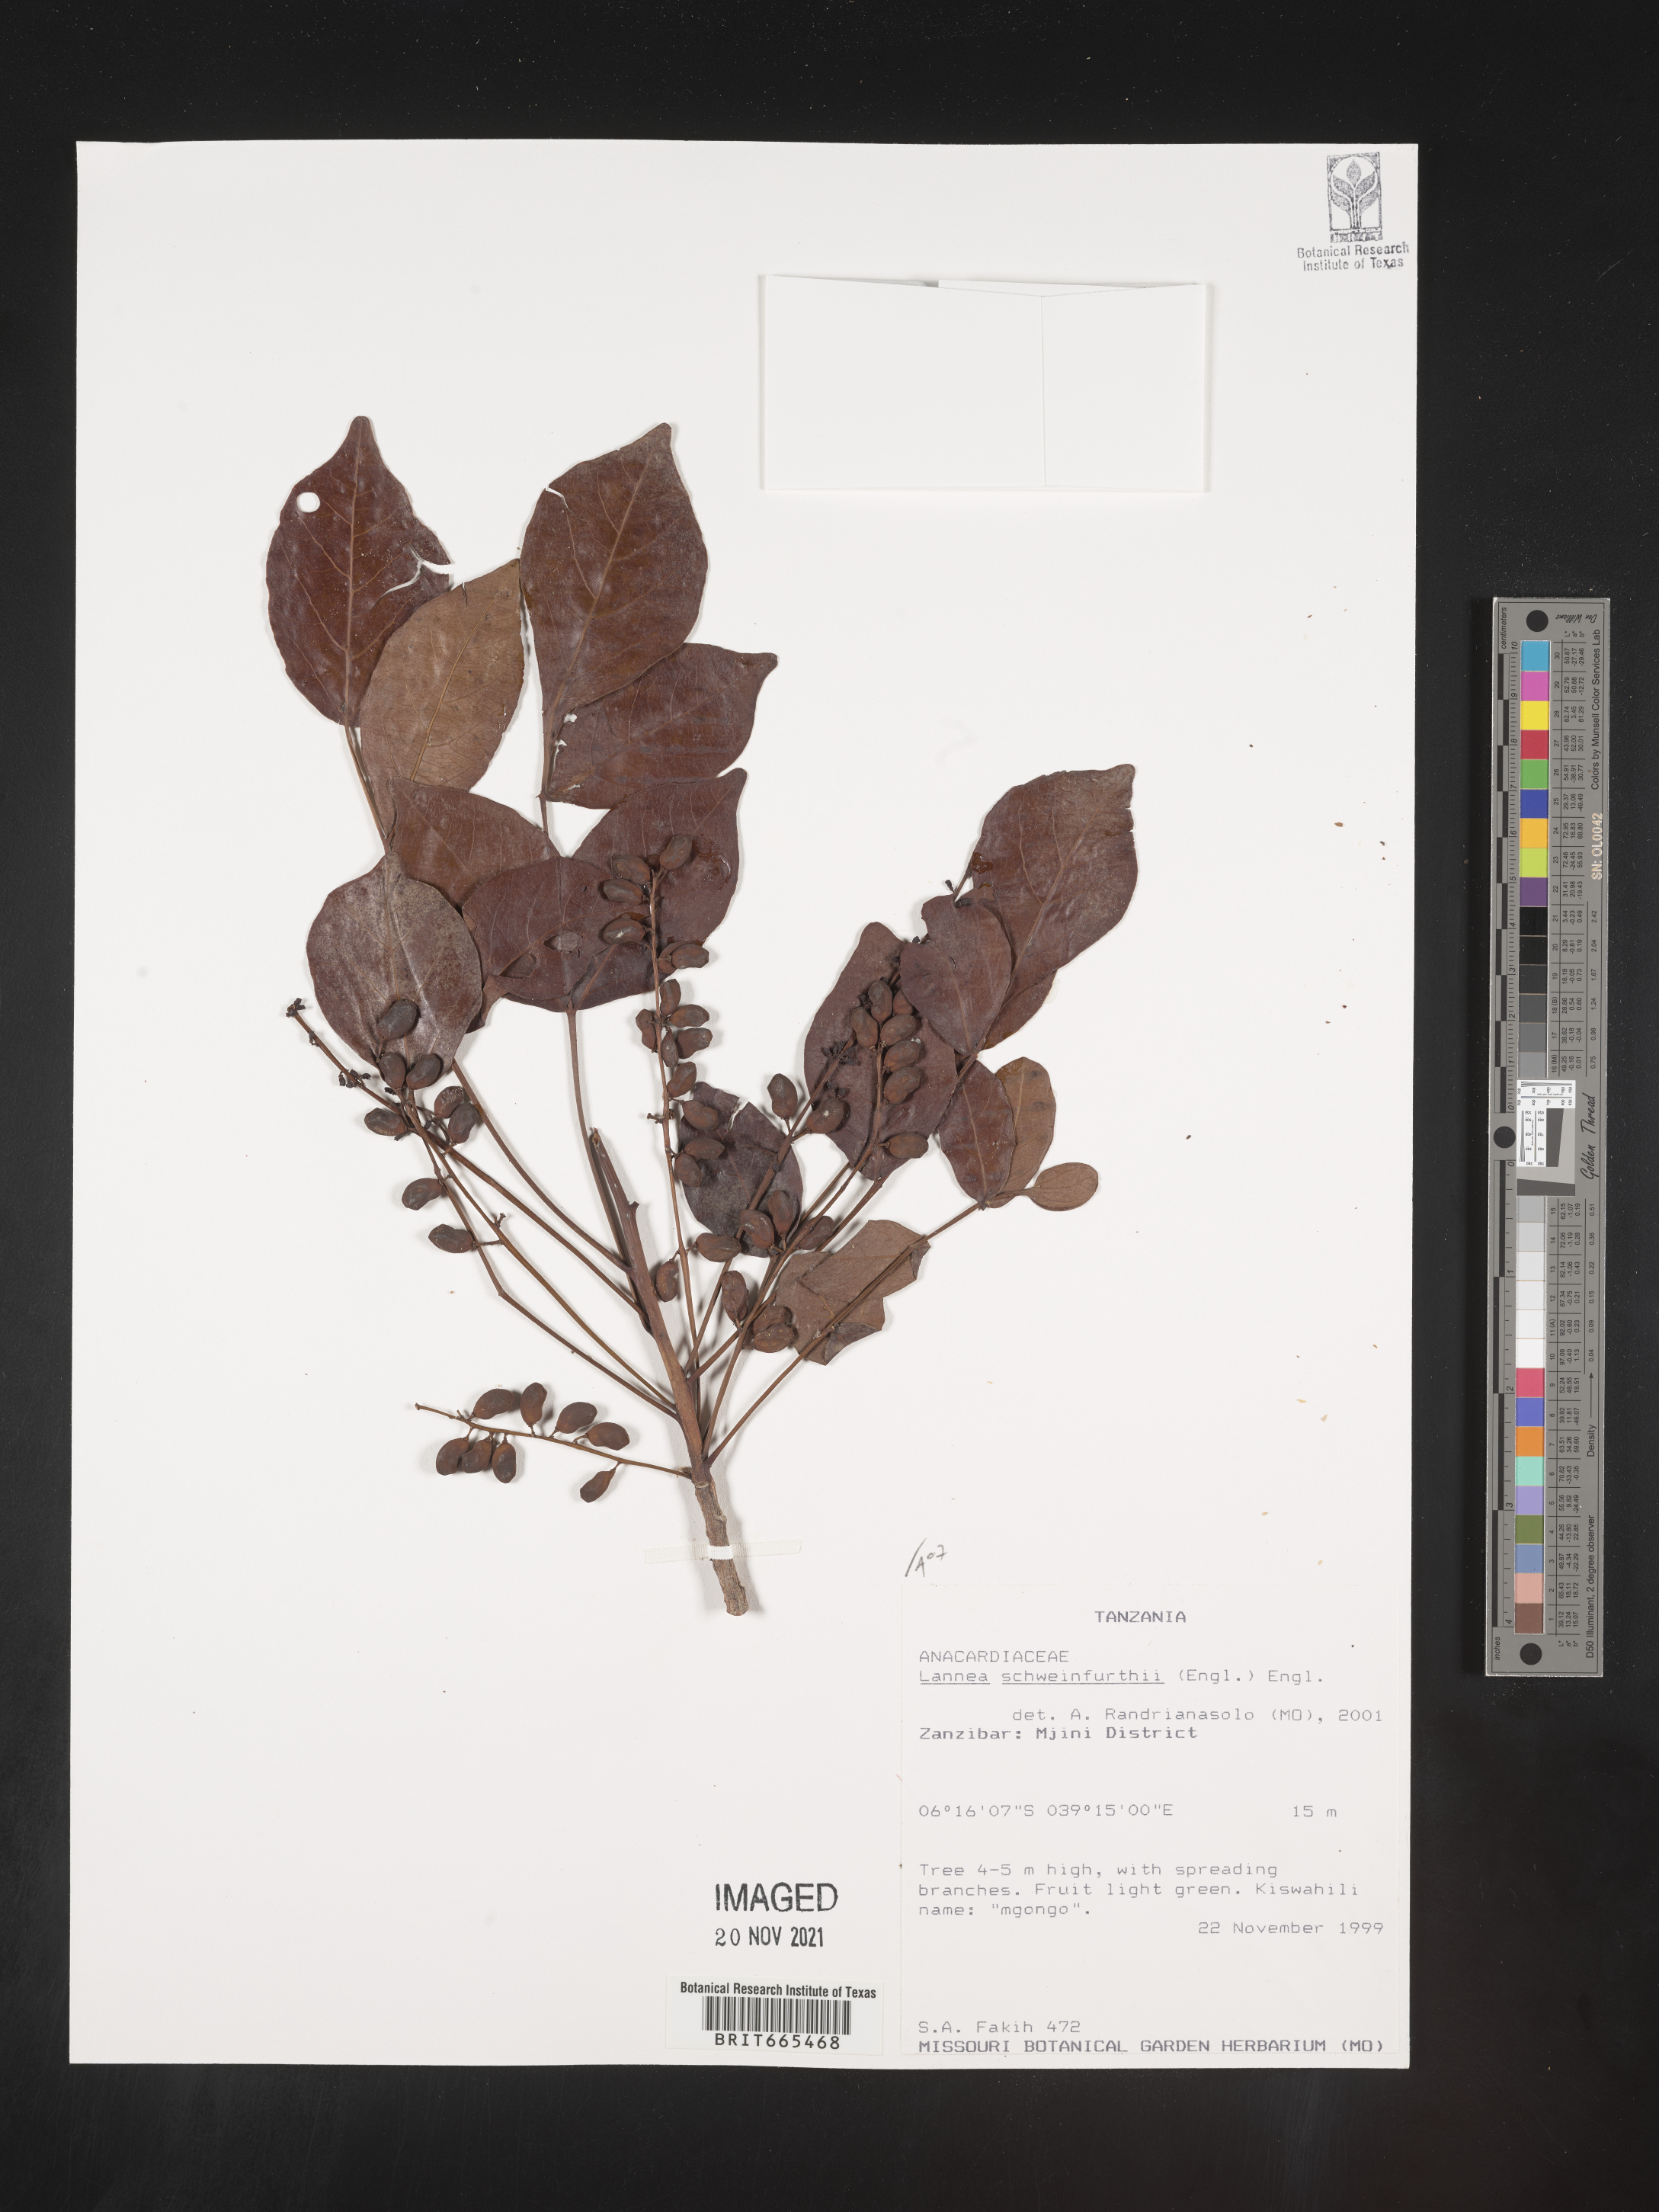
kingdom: Plantae
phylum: Tracheophyta
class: Magnoliopsida
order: Sapindales
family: Anacardiaceae
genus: Lannea
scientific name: Lannea
